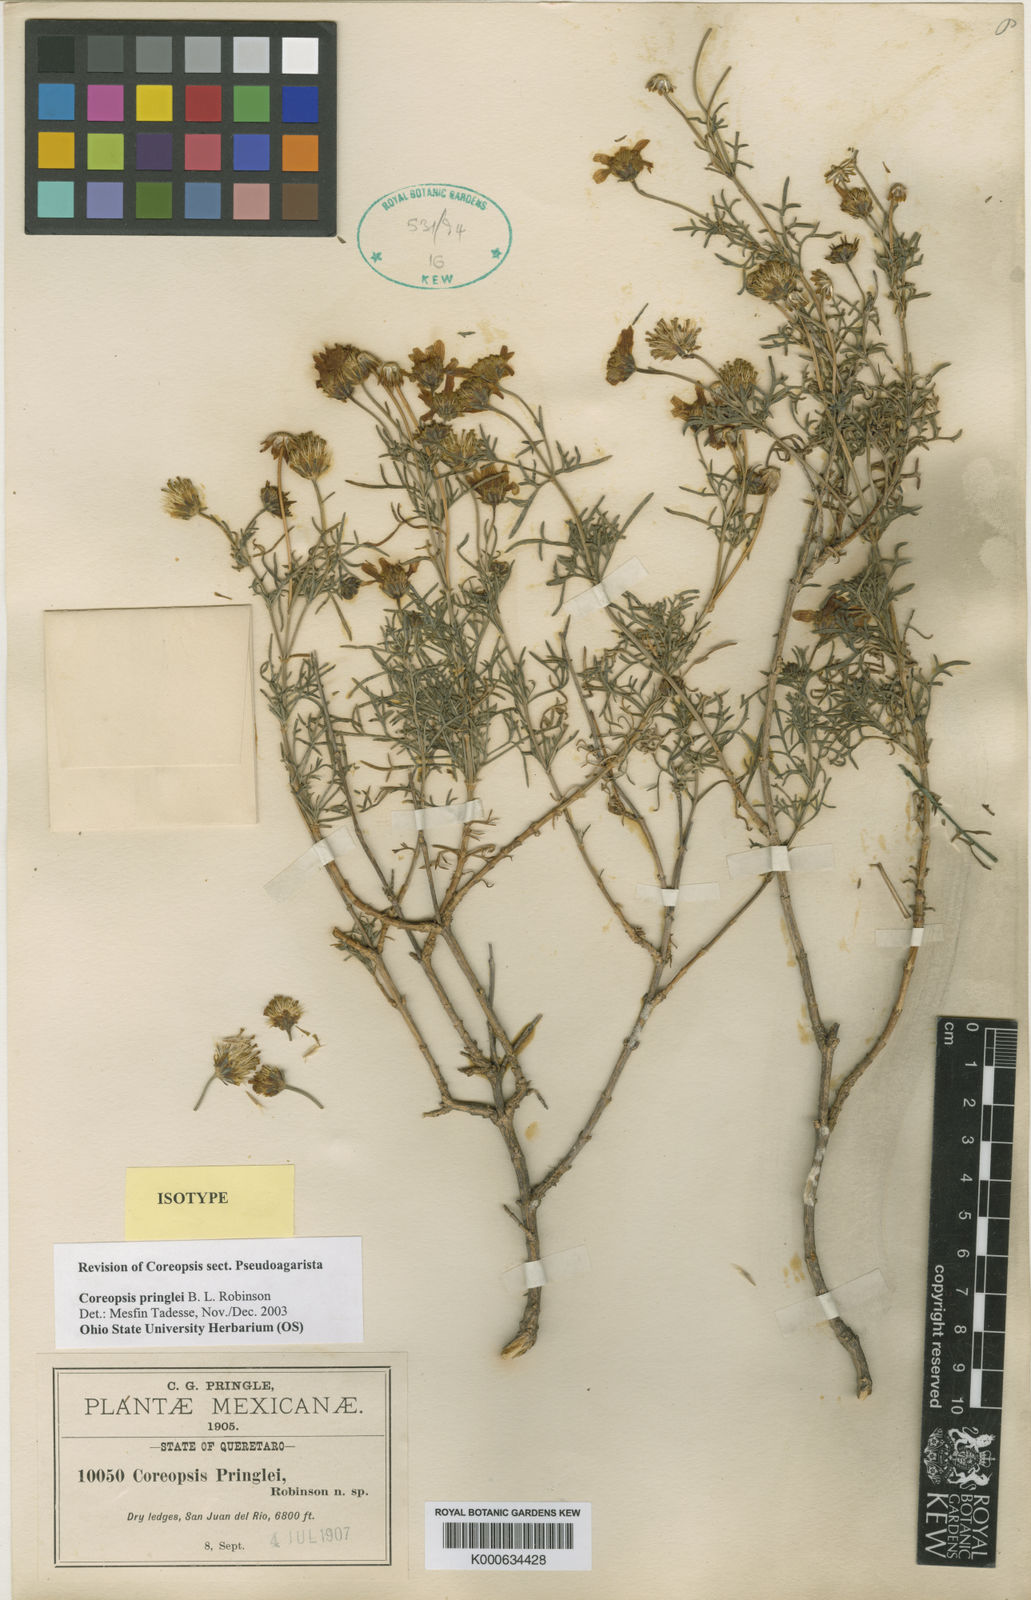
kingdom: Plantae
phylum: Tracheophyta
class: Magnoliopsida
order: Asterales
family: Asteraceae
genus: Coreopsis
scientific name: Coreopsis pringlei
